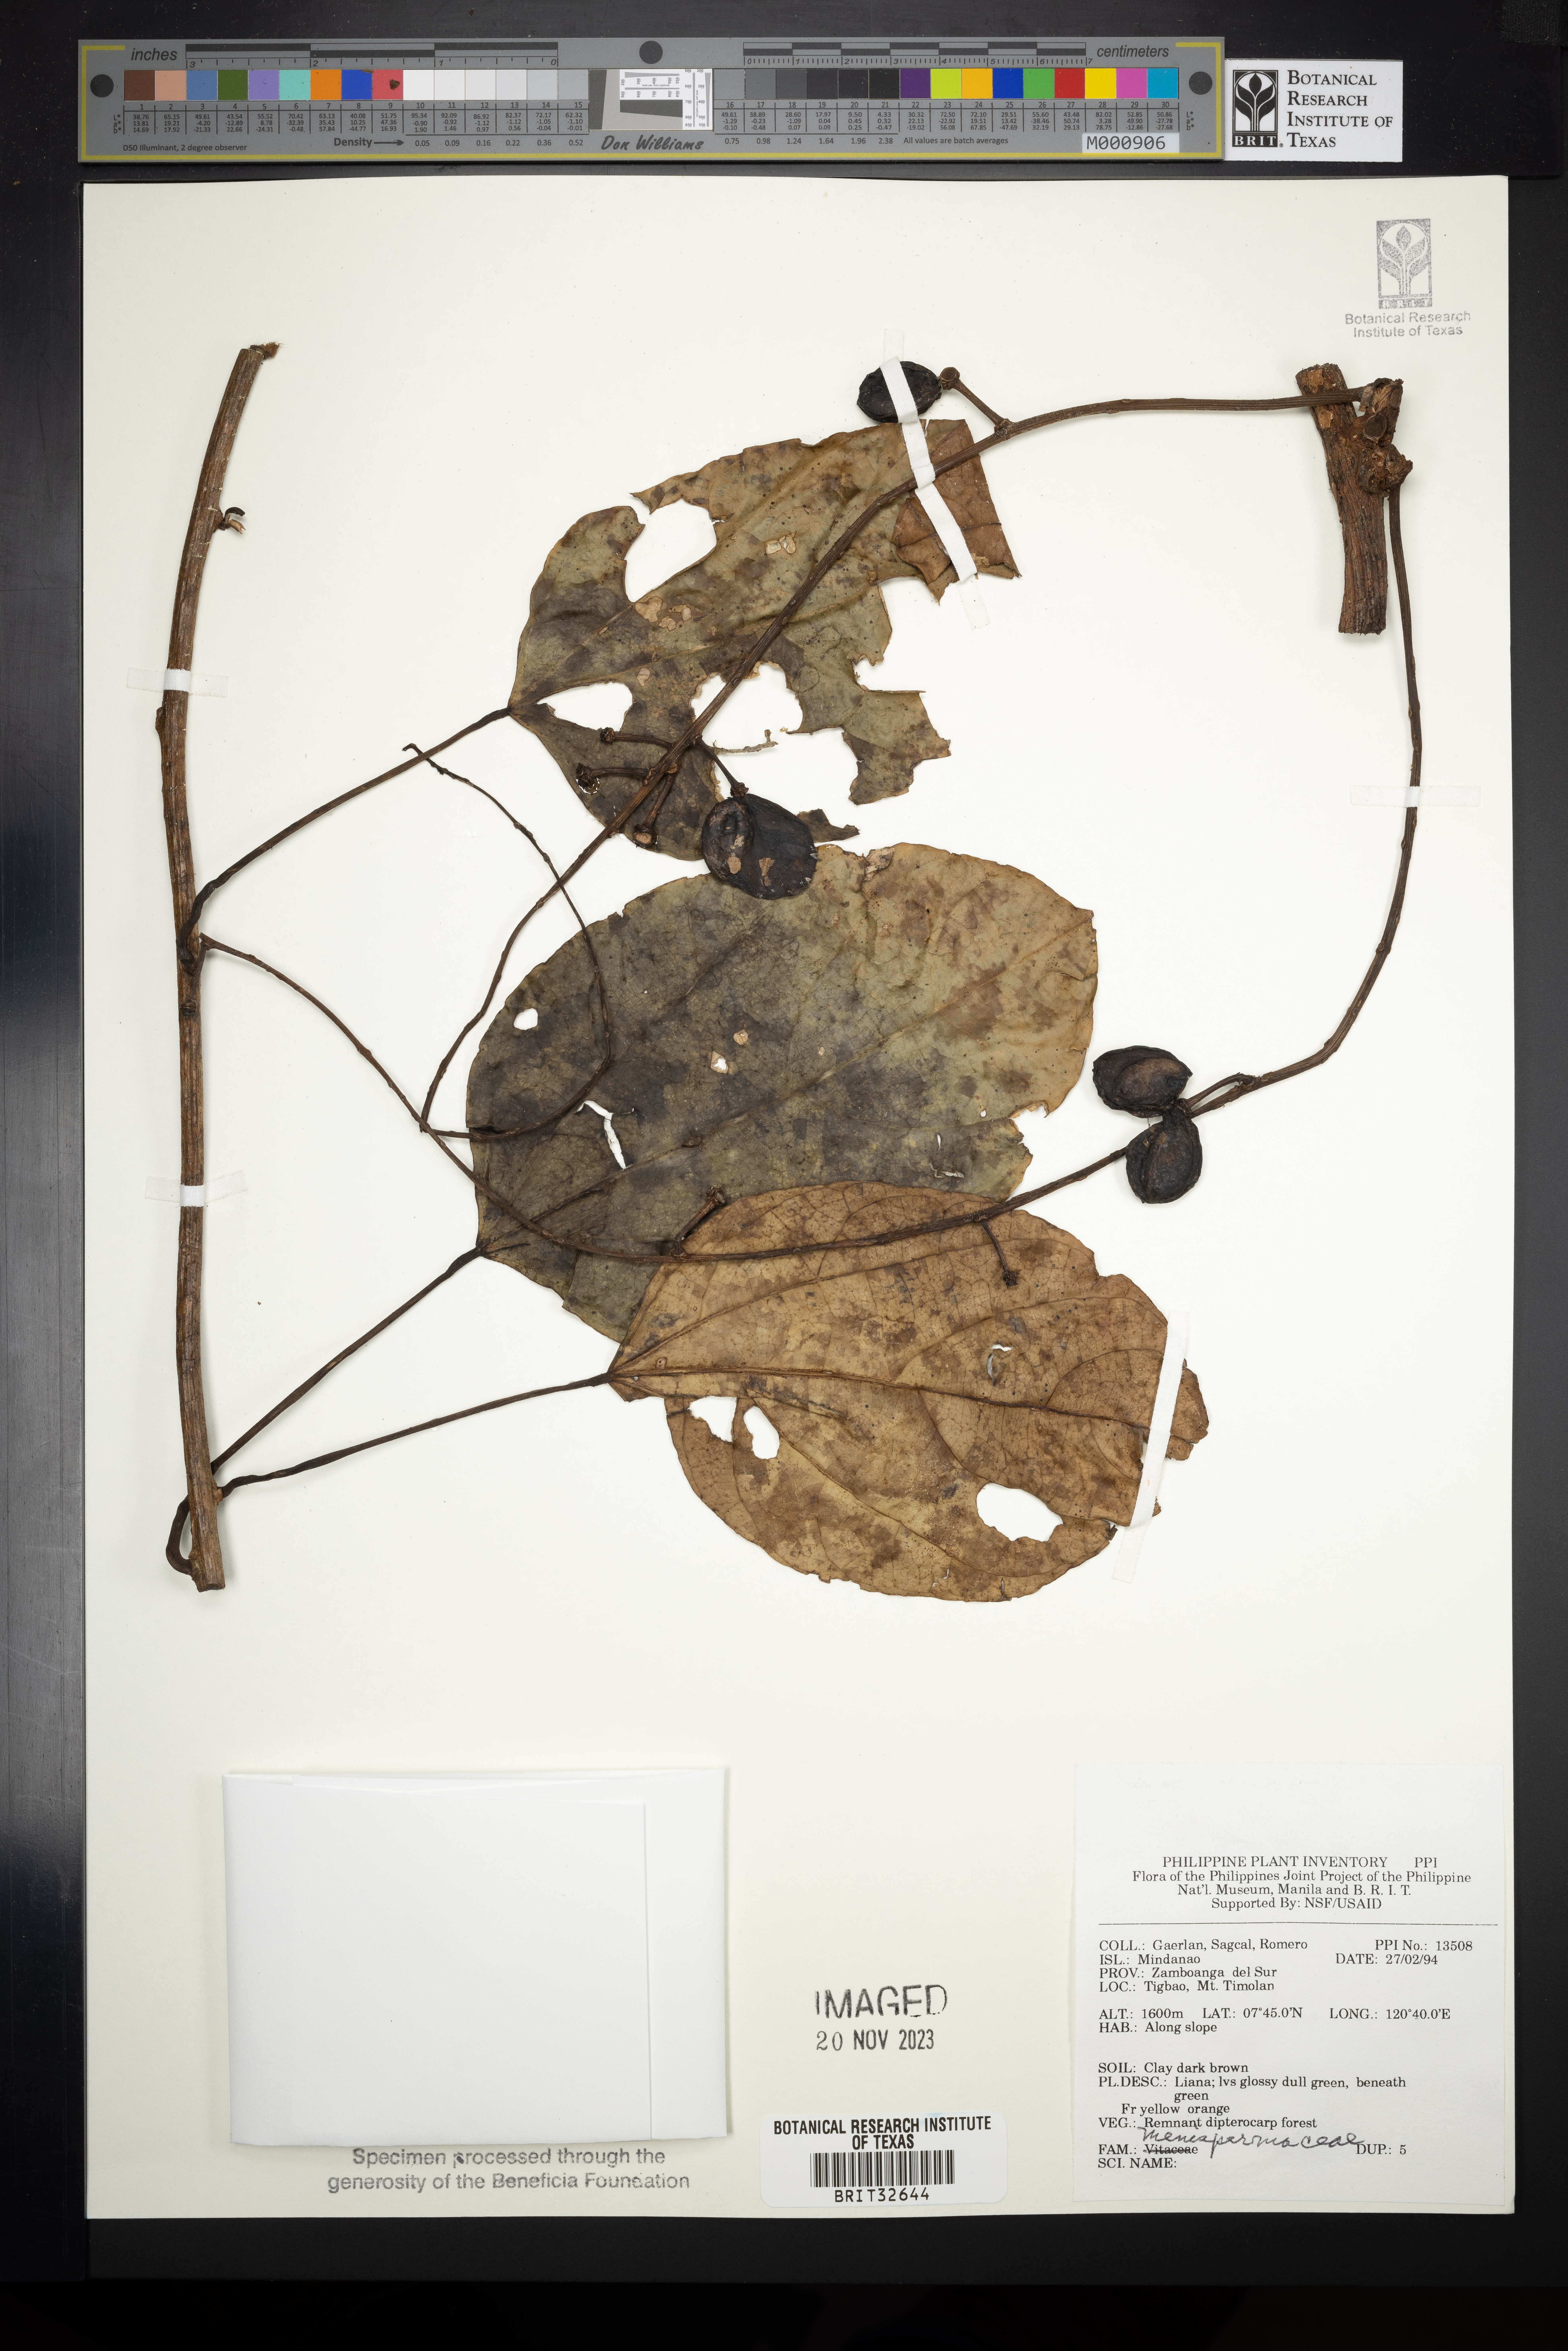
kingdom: Plantae
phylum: Tracheophyta
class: Magnoliopsida
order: Ranunculales
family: Menispermaceae
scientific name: Menispermaceae
